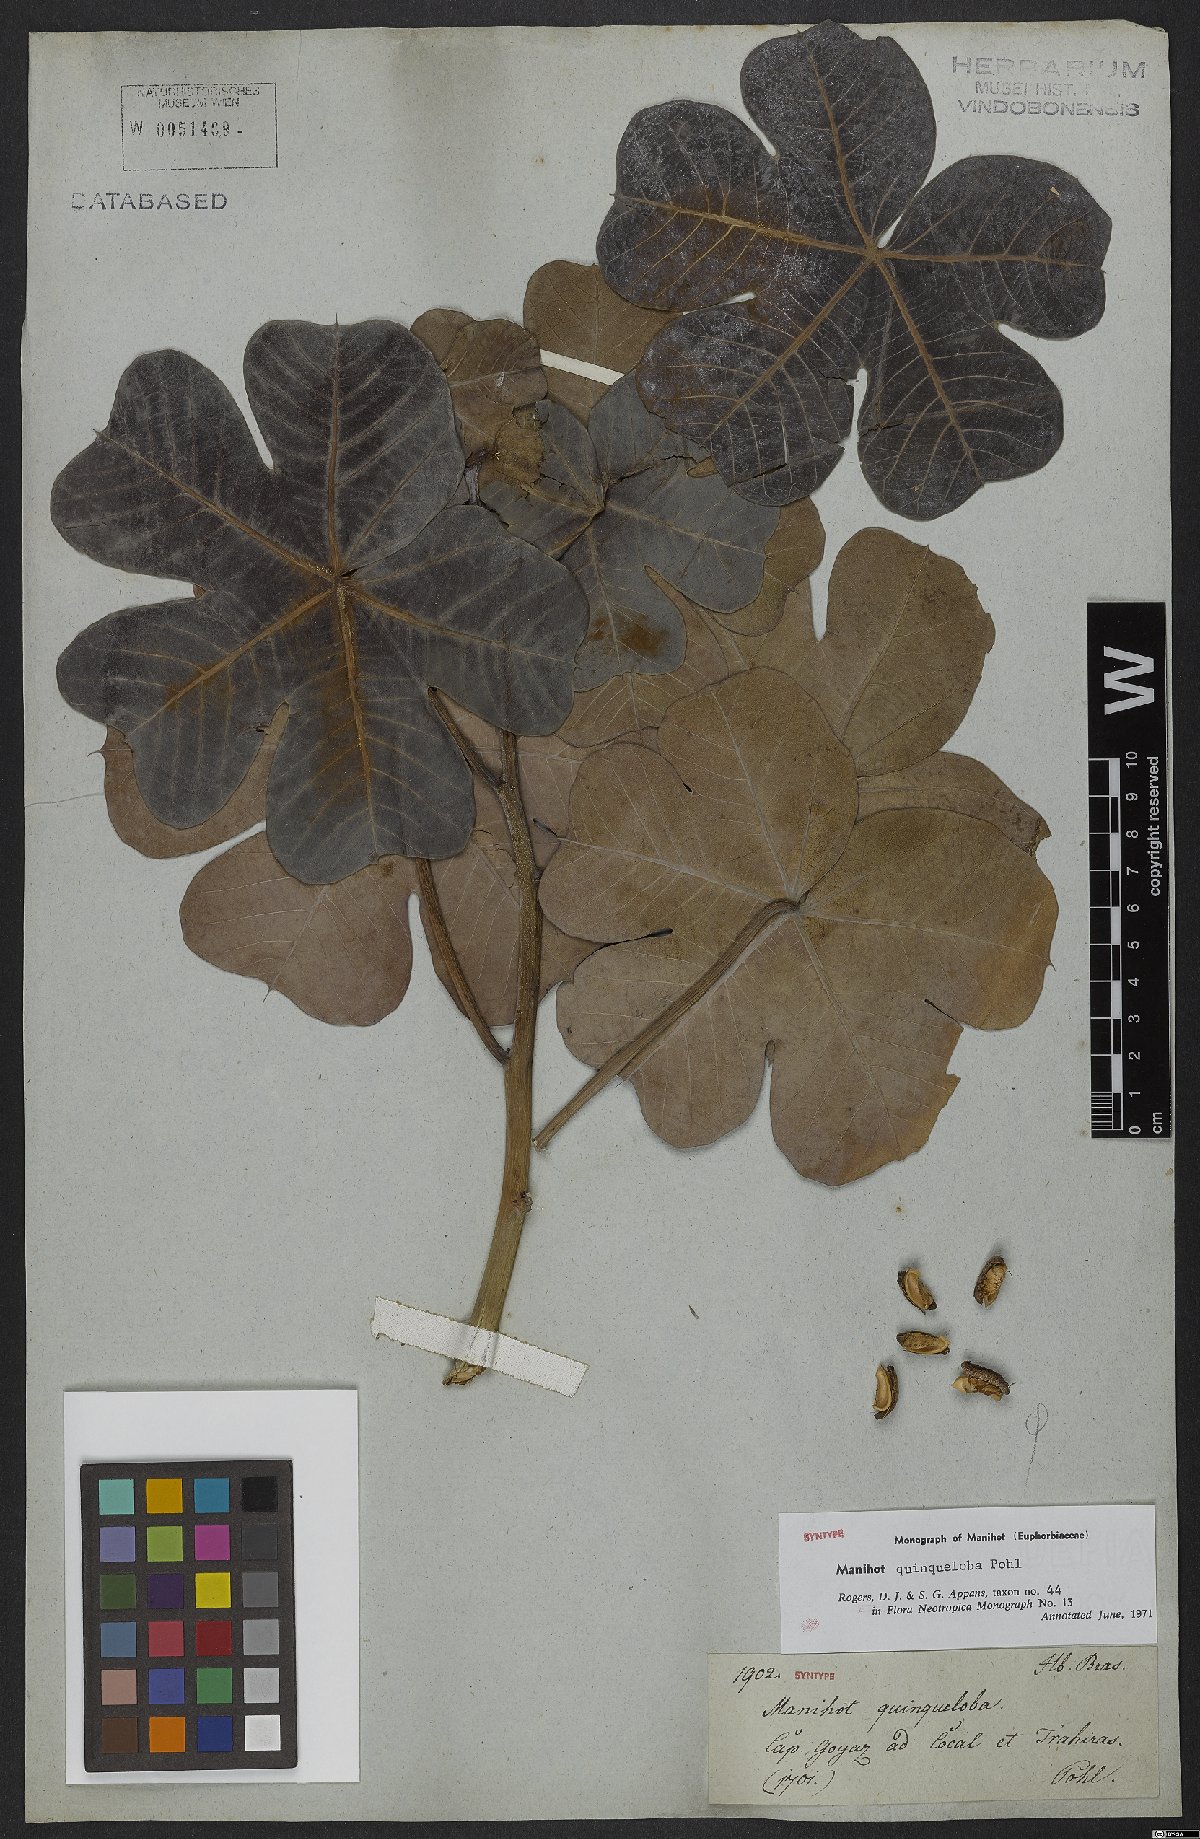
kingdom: Plantae
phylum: Tracheophyta
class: Magnoliopsida
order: Malpighiales
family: Euphorbiaceae
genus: Manihot
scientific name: Manihot quinqueloba
